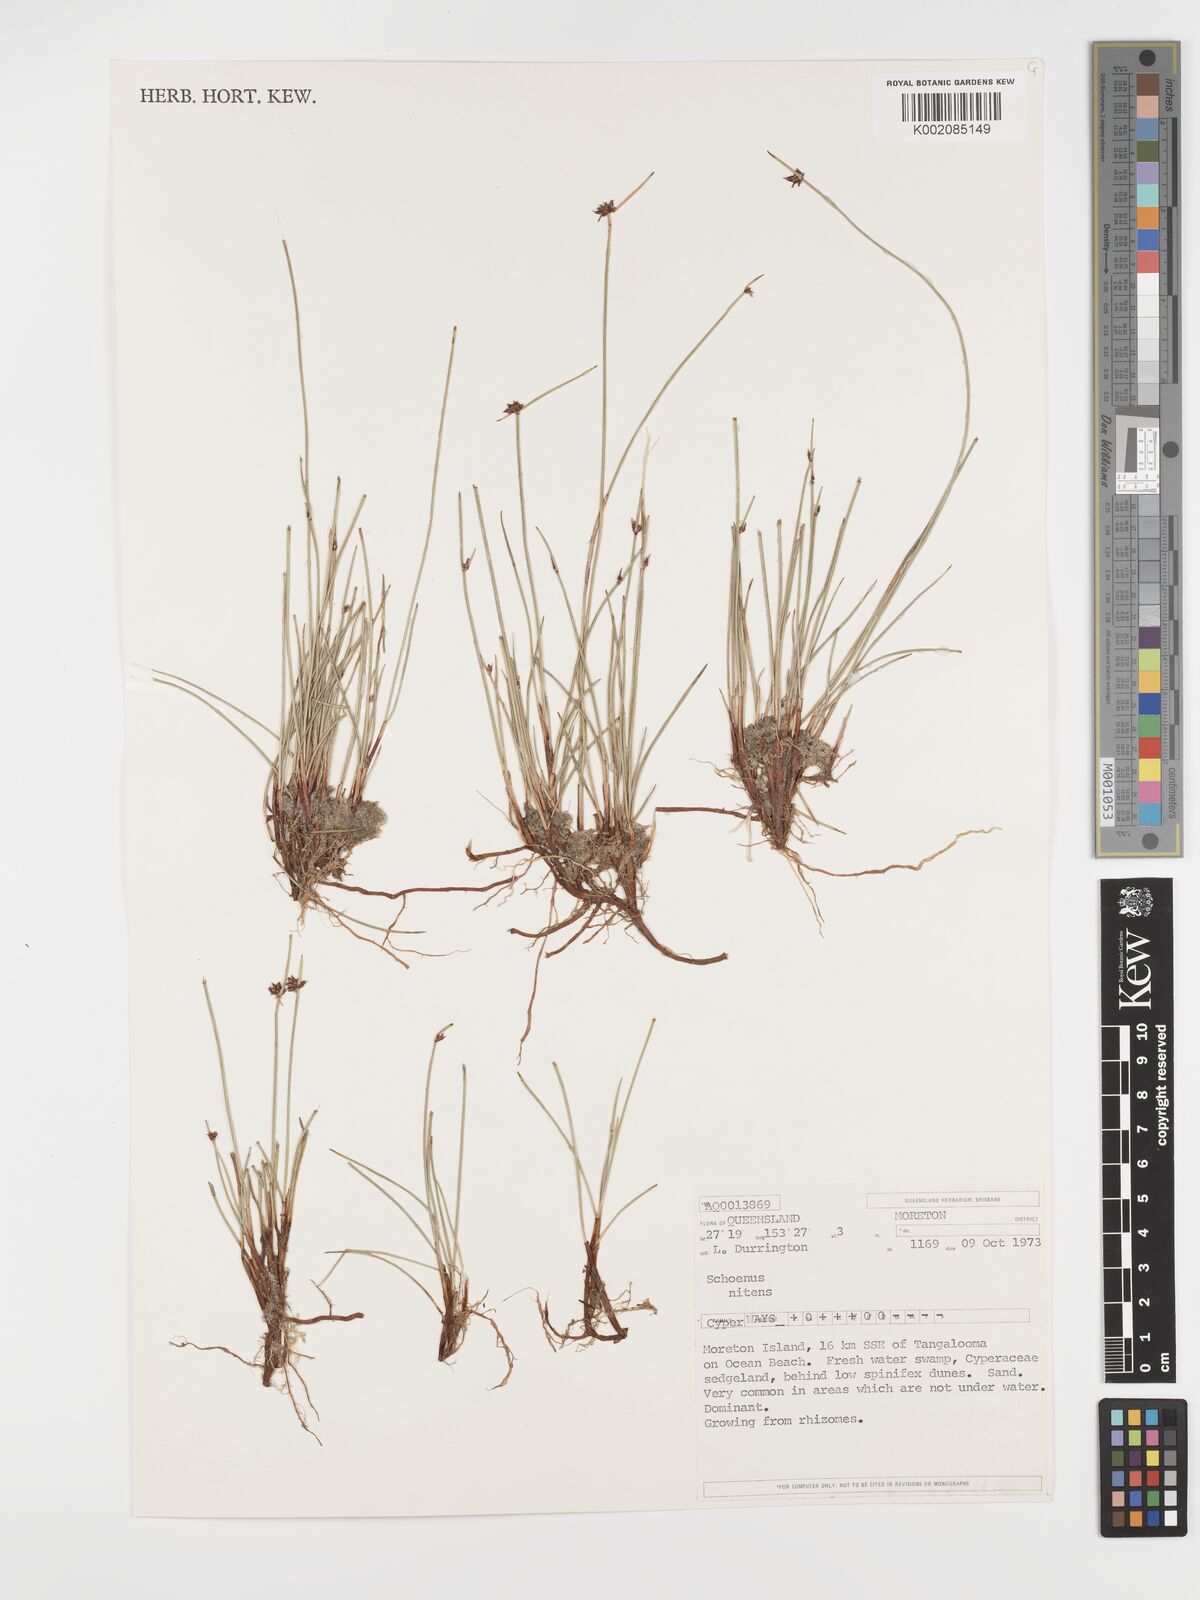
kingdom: Plantae
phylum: Tracheophyta
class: Liliopsida
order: Poales
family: Cyperaceae
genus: Schoenus
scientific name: Schoenus nitens
